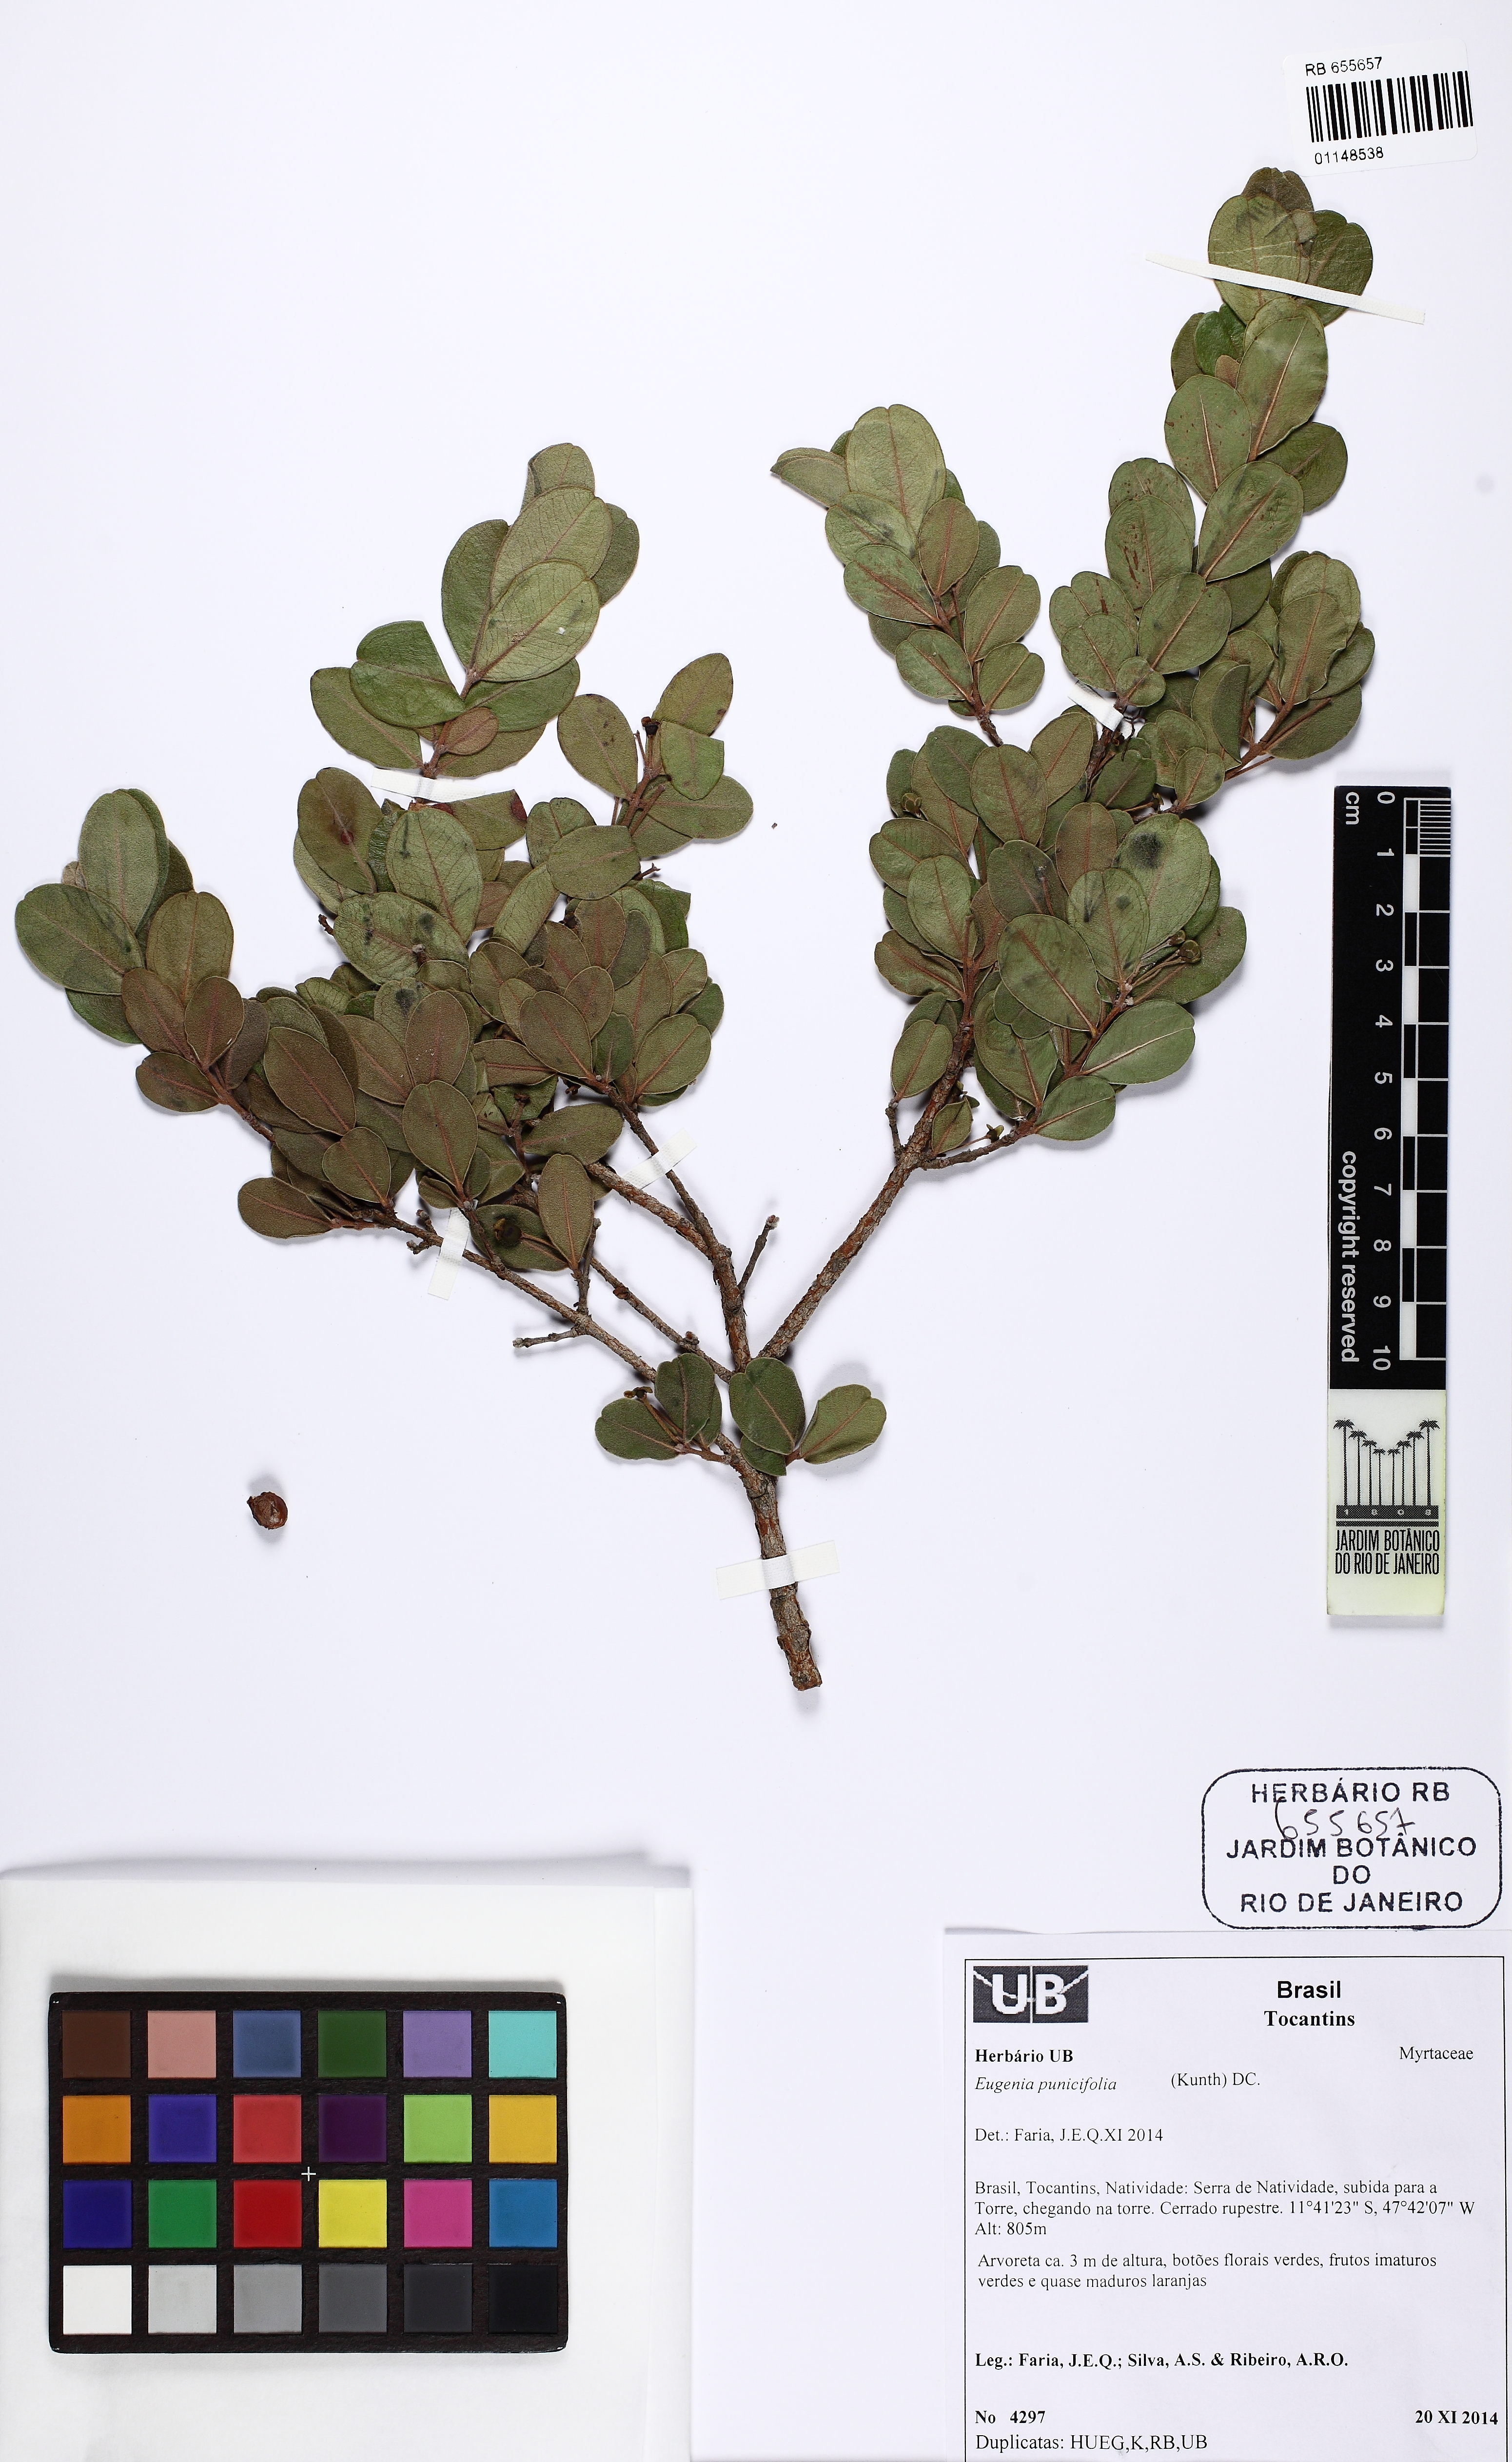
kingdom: Plantae
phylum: Tracheophyta
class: Magnoliopsida
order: Myrtales
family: Myrtaceae
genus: Eugenia
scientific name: Eugenia punicifolia
